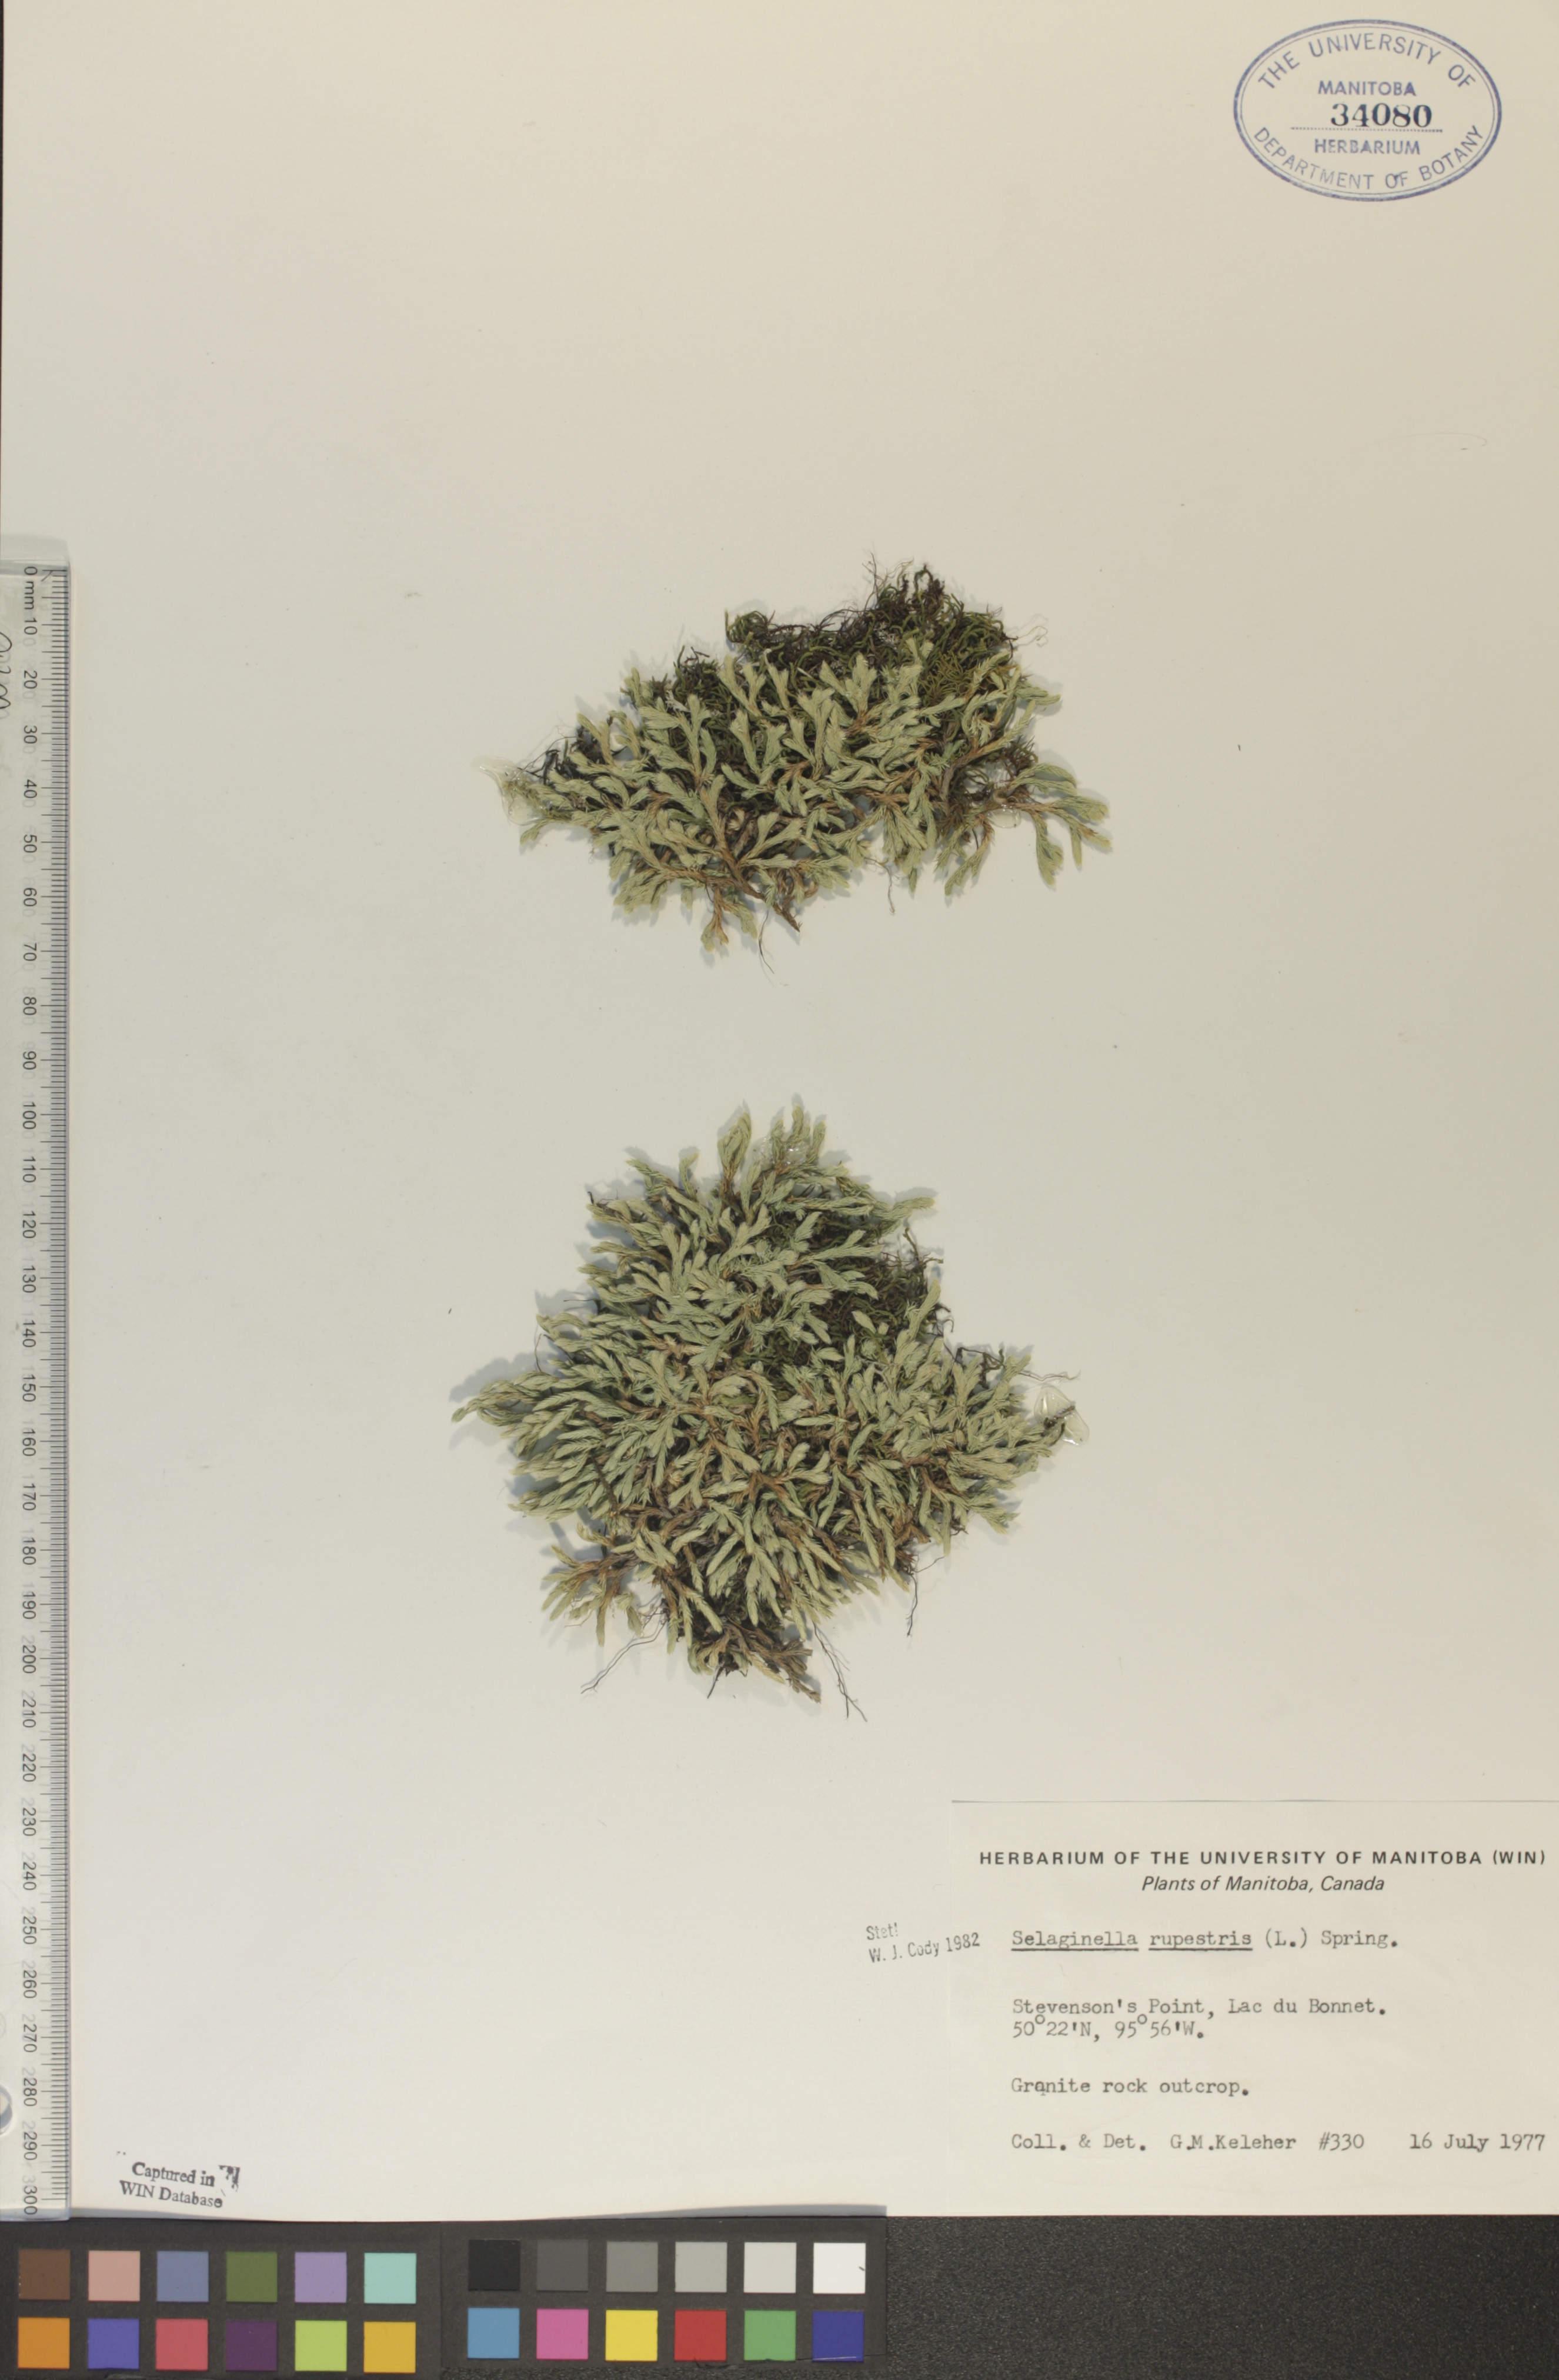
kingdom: Plantae
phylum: Tracheophyta
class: Lycopodiopsida
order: Selaginellales
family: Selaginellaceae
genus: Selaginella
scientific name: Selaginella rupestris
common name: Dwarf spikemoss
